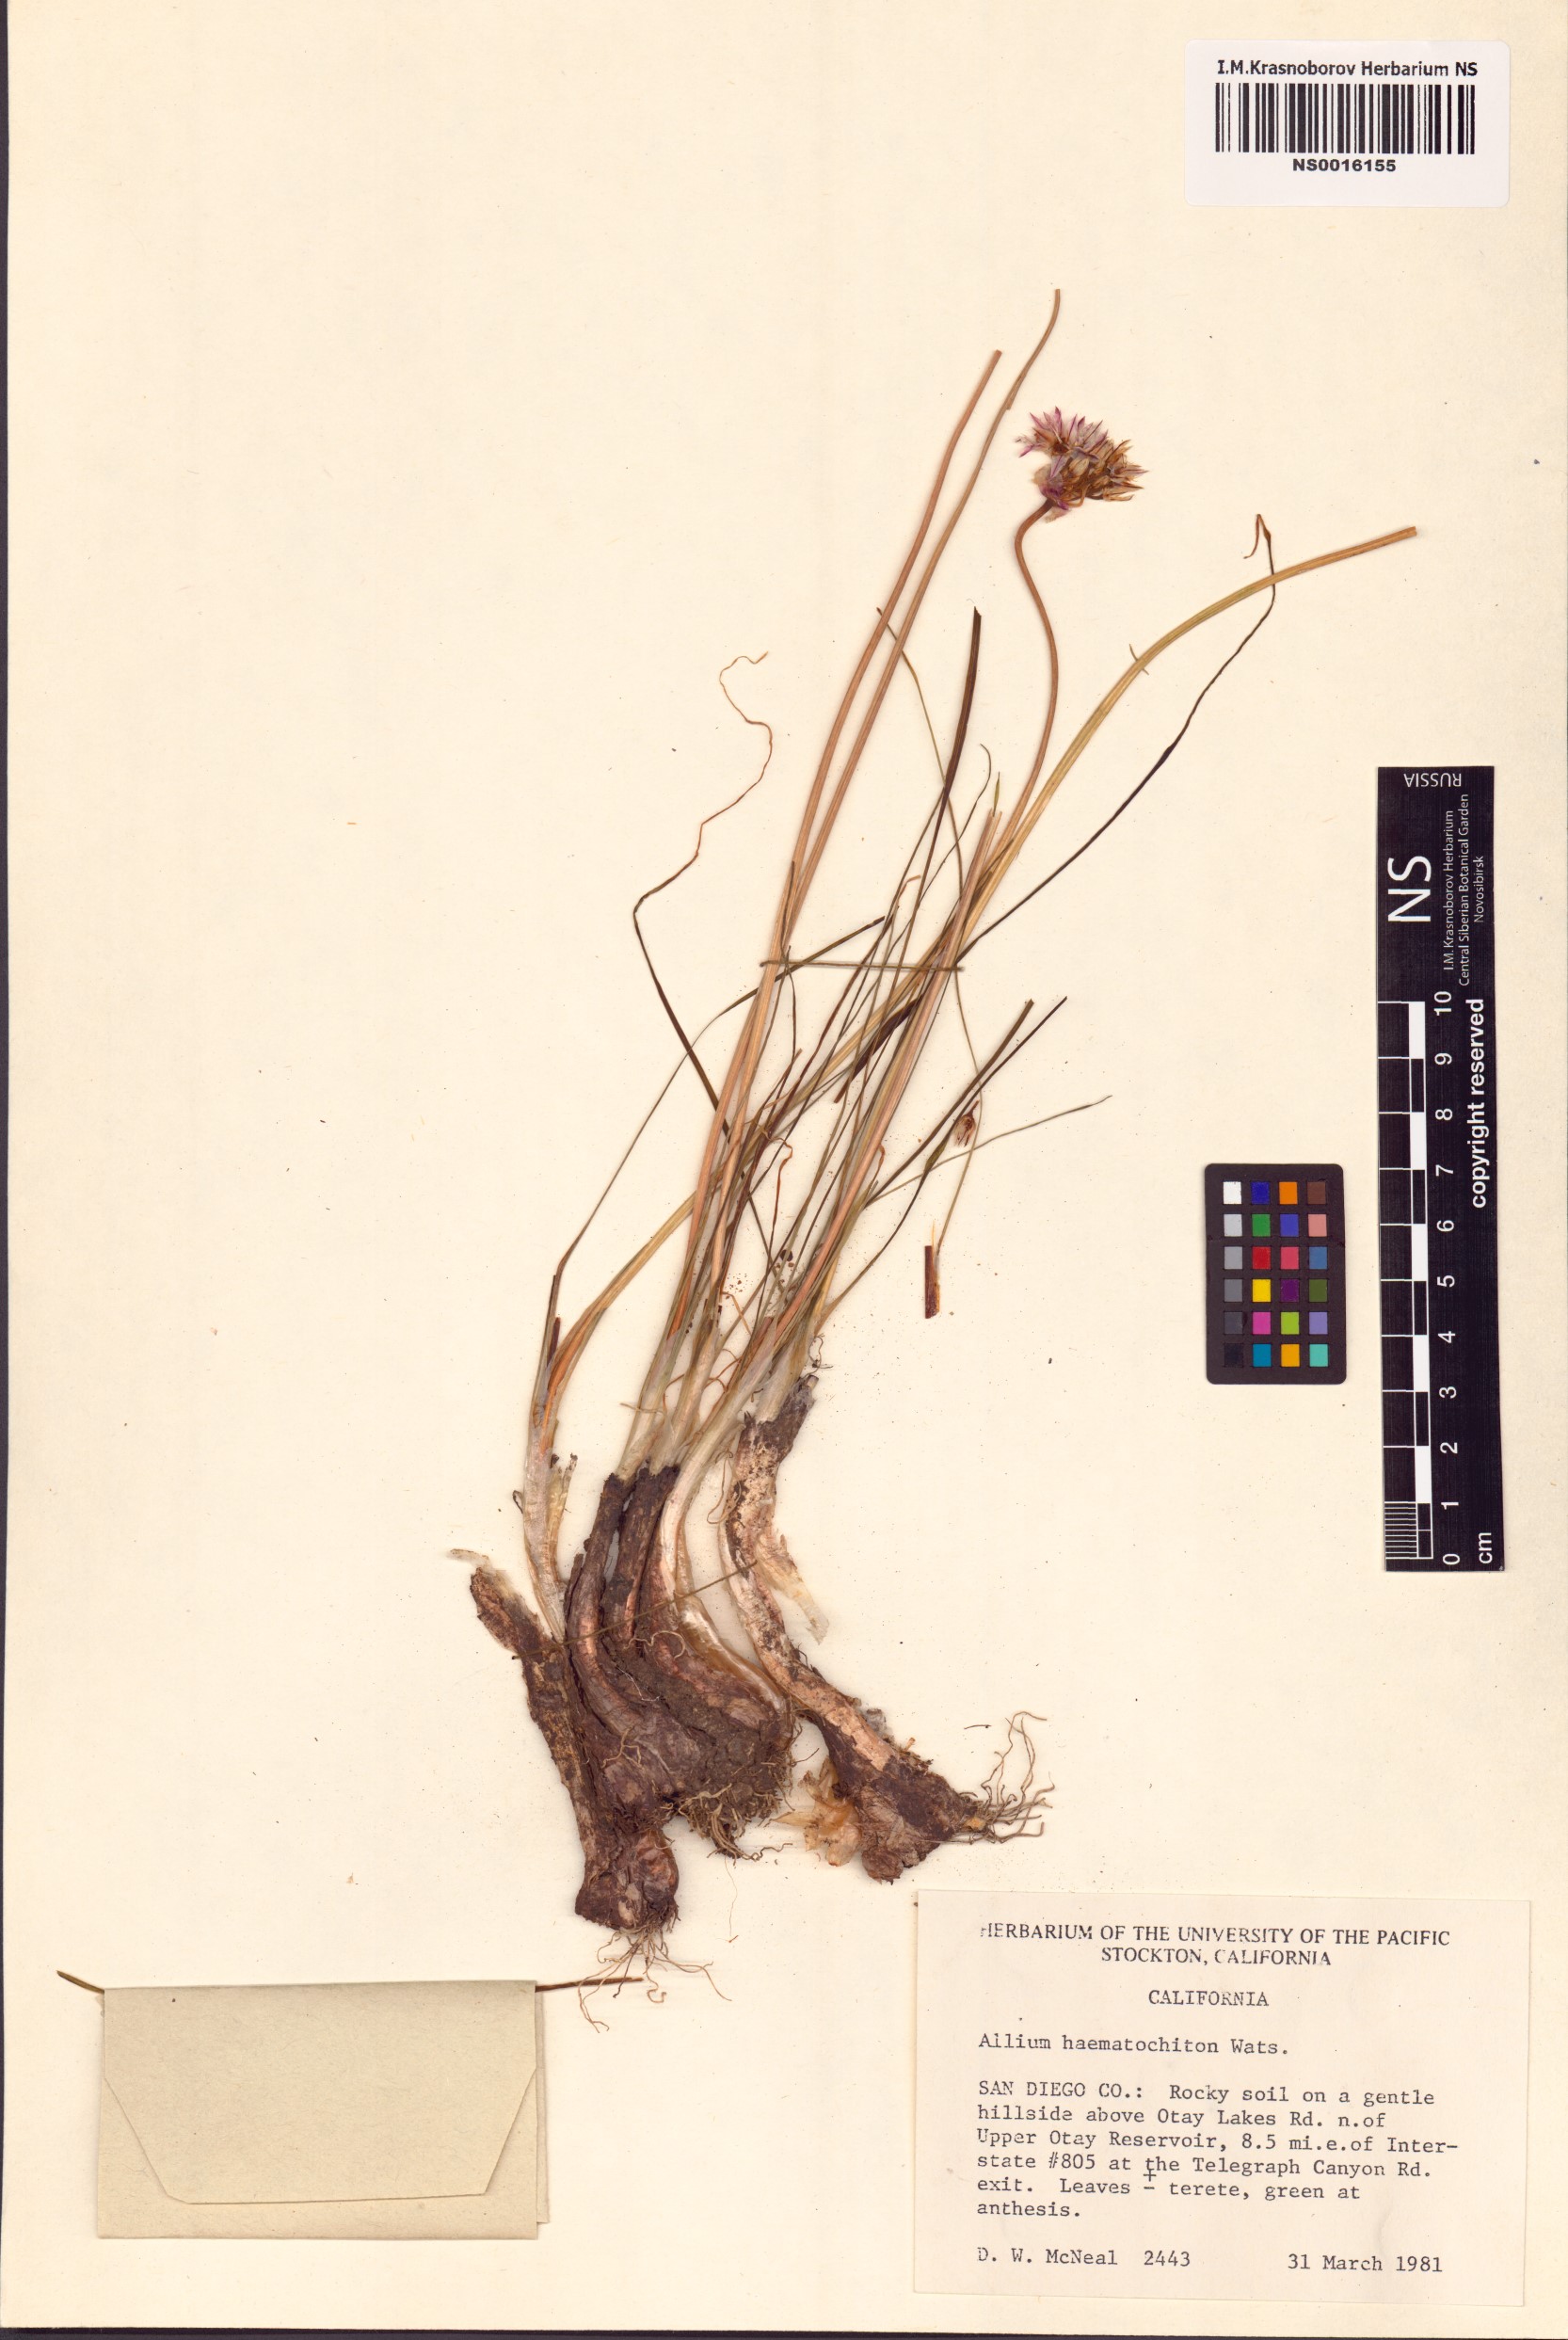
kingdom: Plantae
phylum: Tracheophyta
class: Liliopsida
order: Asparagales
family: Amaryllidaceae
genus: Allium
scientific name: Allium haematochiton
